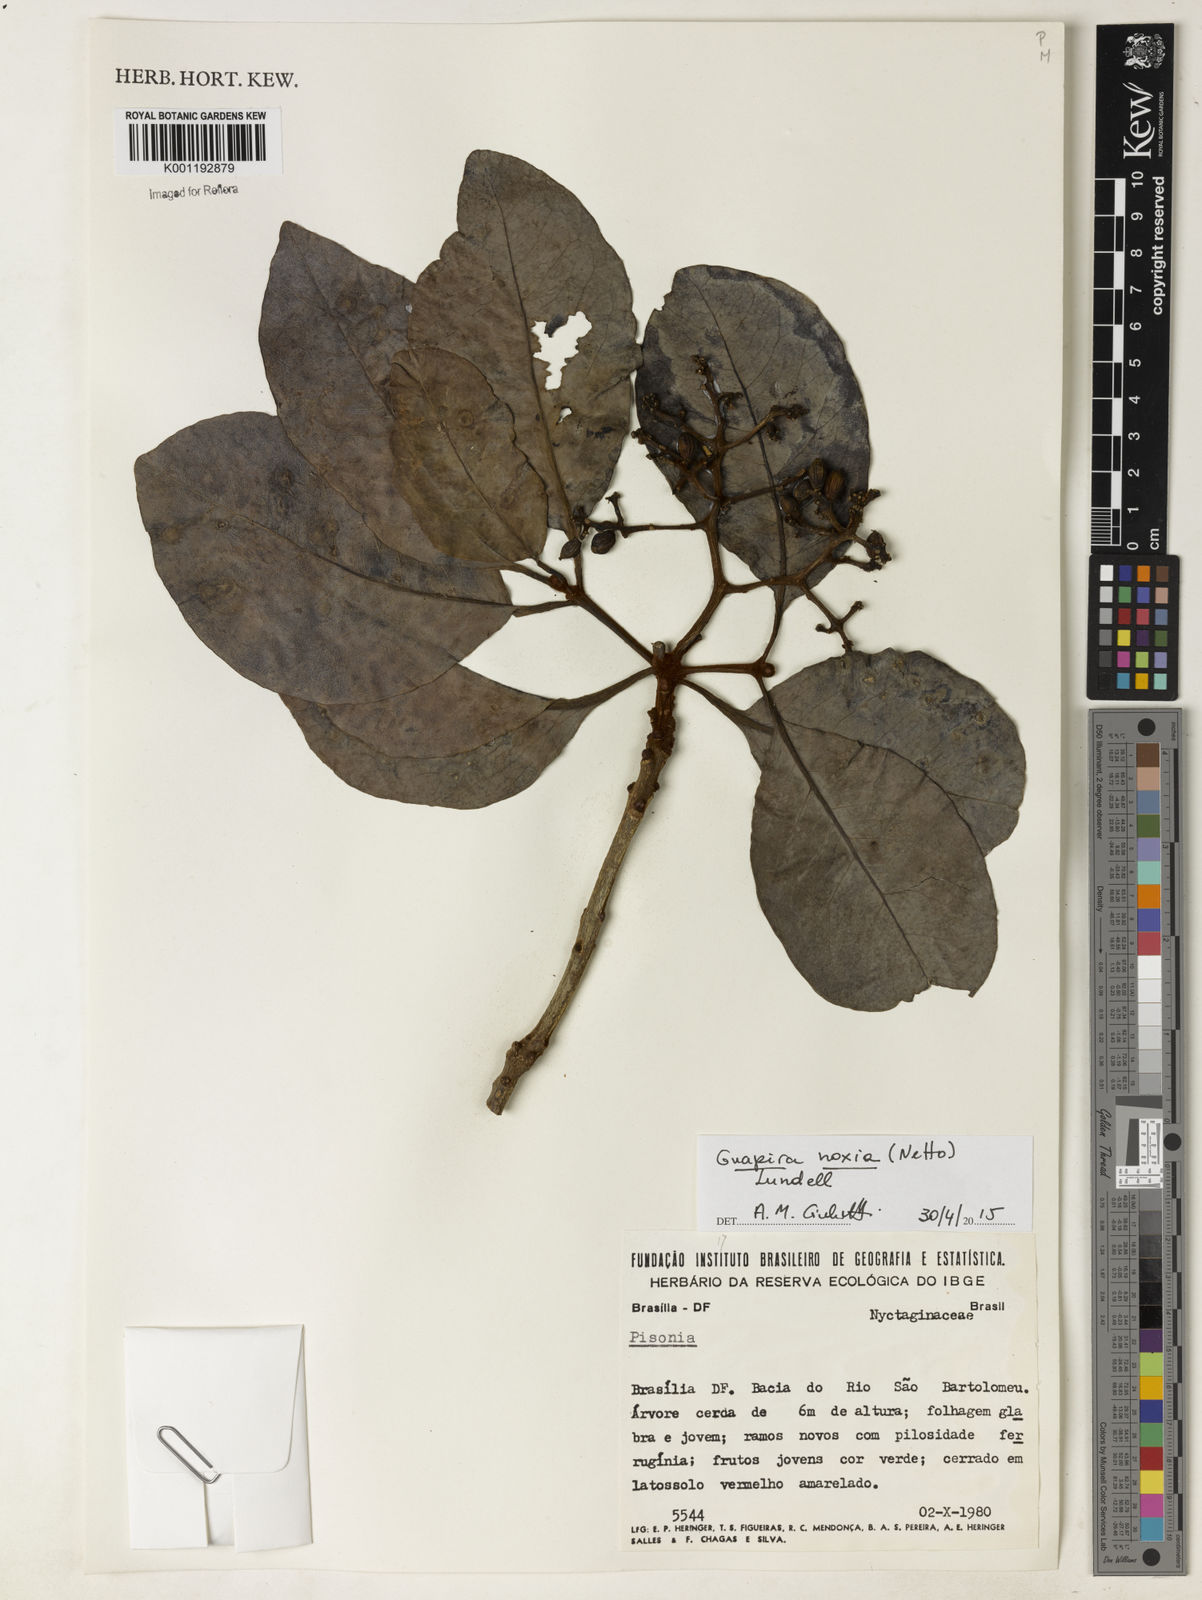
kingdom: Plantae
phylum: Tracheophyta
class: Magnoliopsida
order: Caryophyllales
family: Nyctaginaceae
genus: Guapira
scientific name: Guapira noxia
